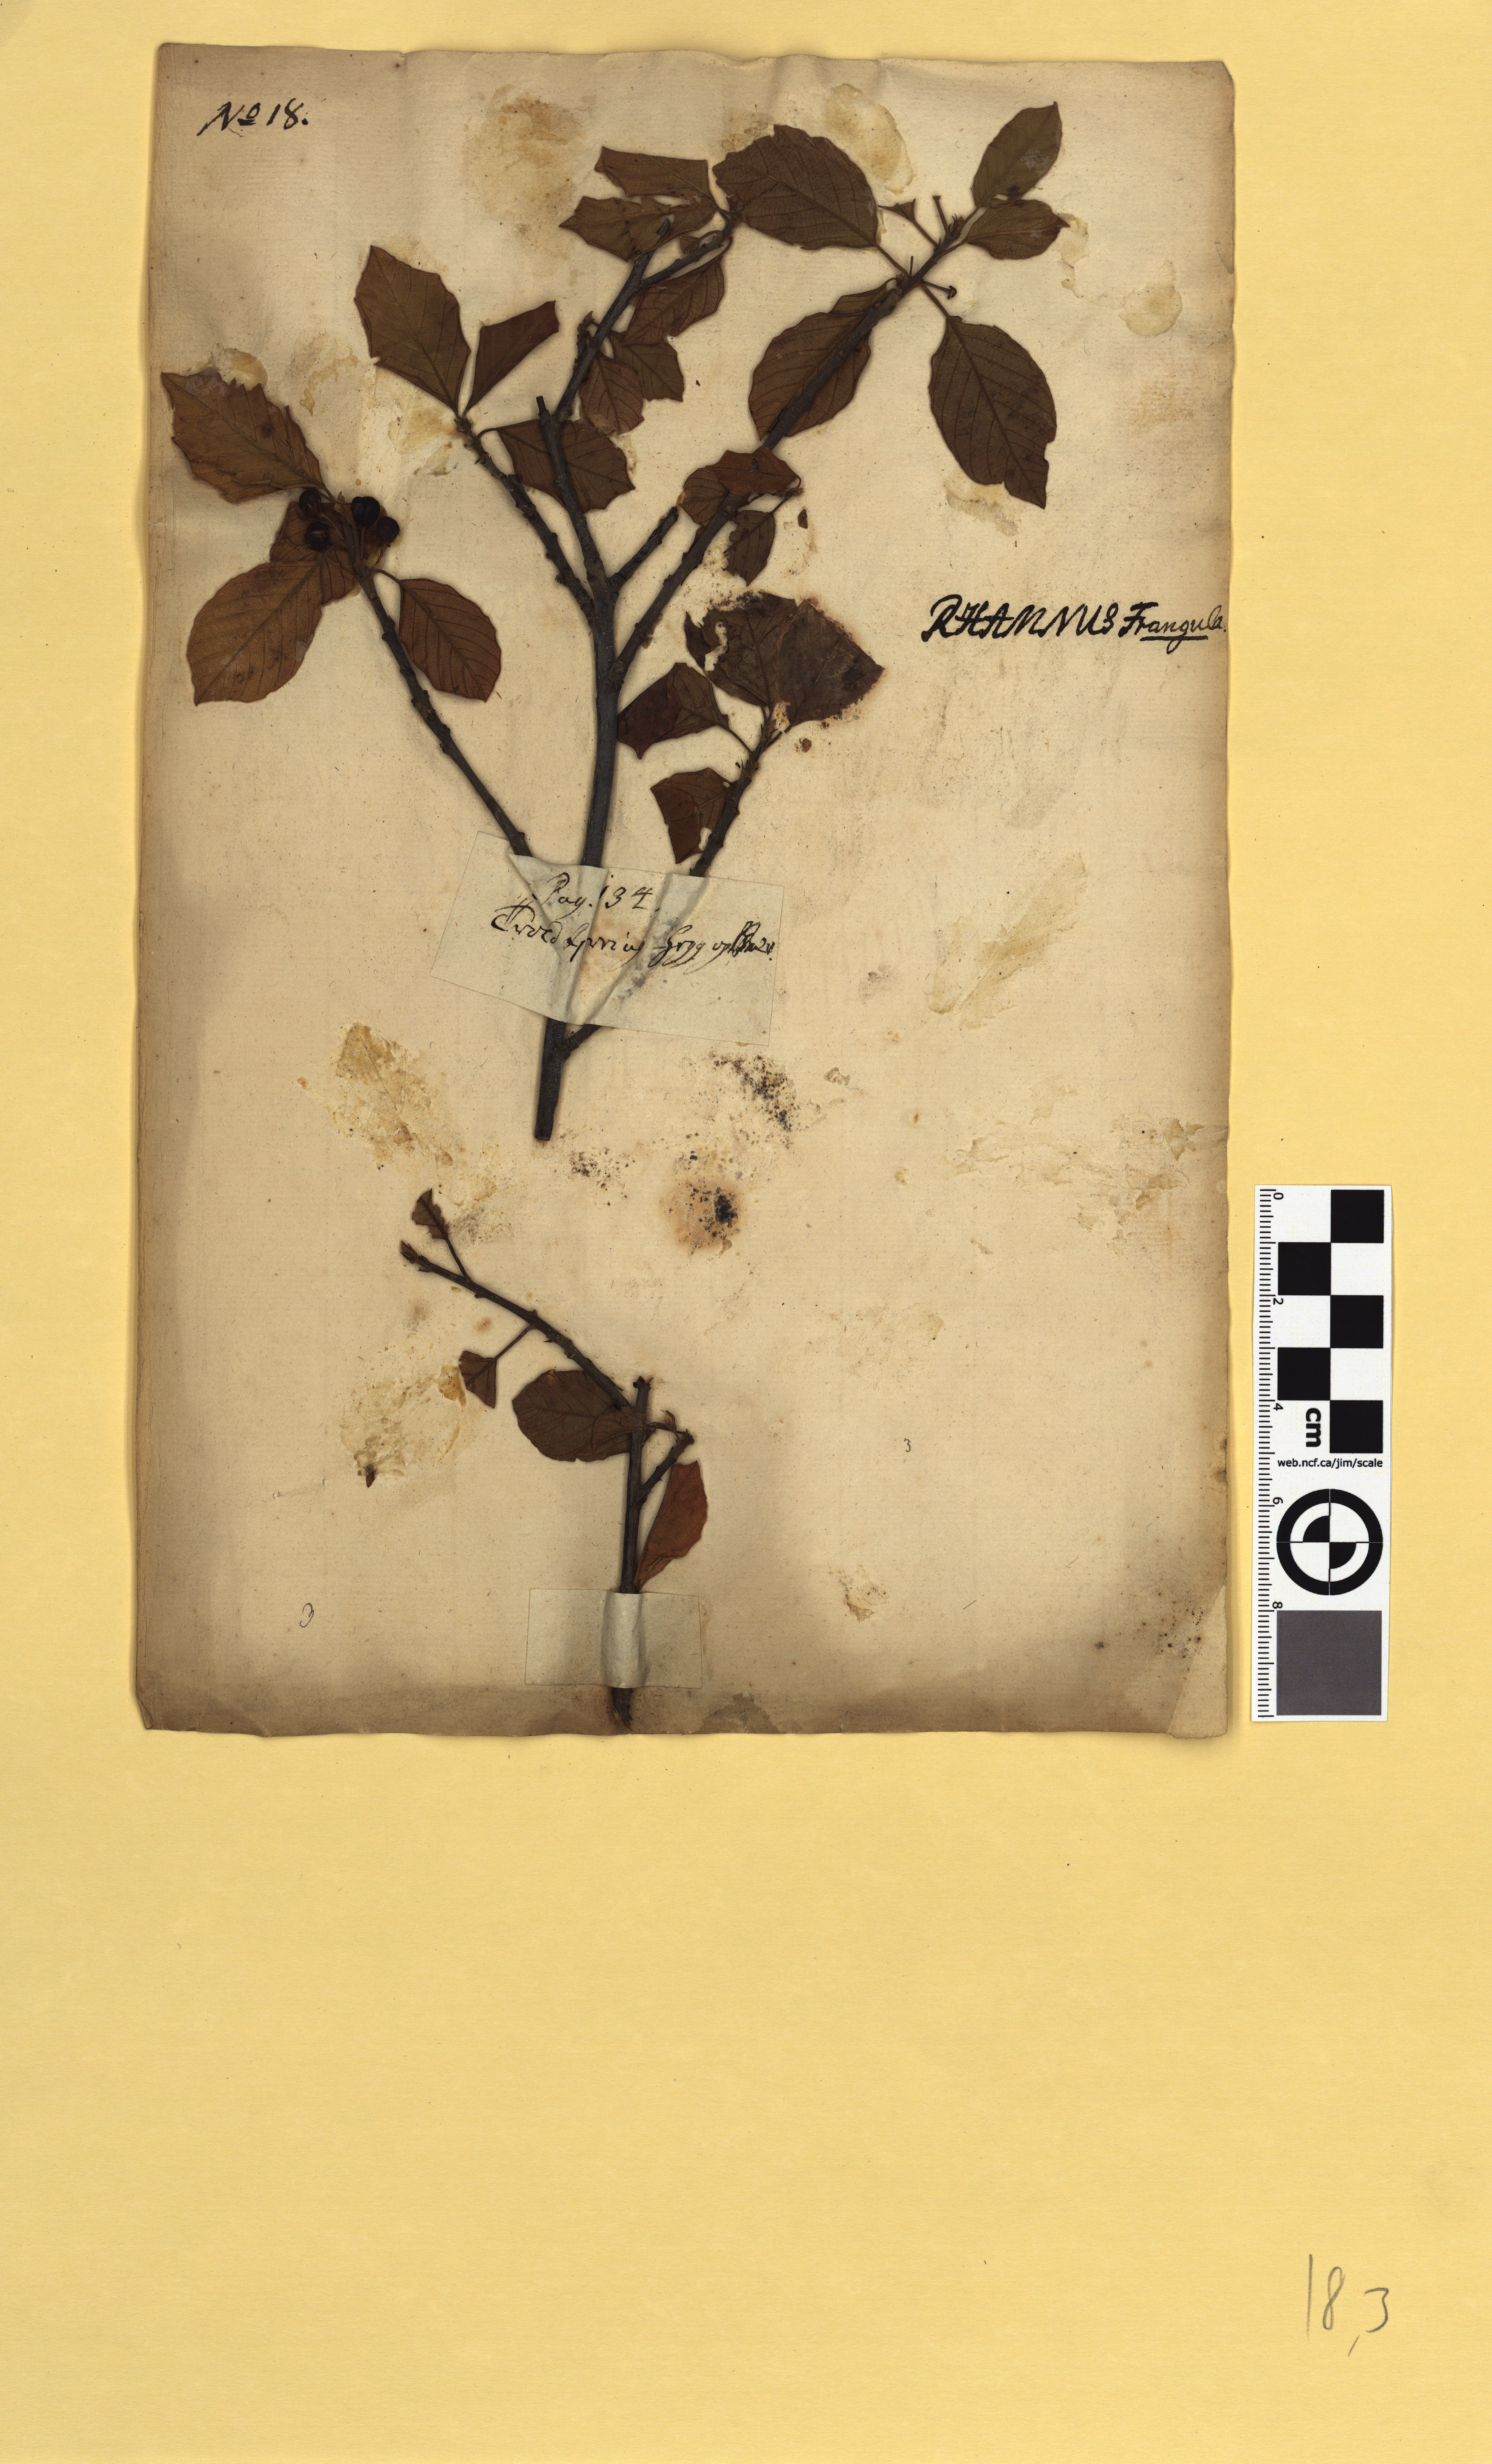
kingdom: Plantae
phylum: Tracheophyta
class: Magnoliopsida
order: Rosales
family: Rhamnaceae
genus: Frangula
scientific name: Frangula alnus
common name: Alder buckthorn
